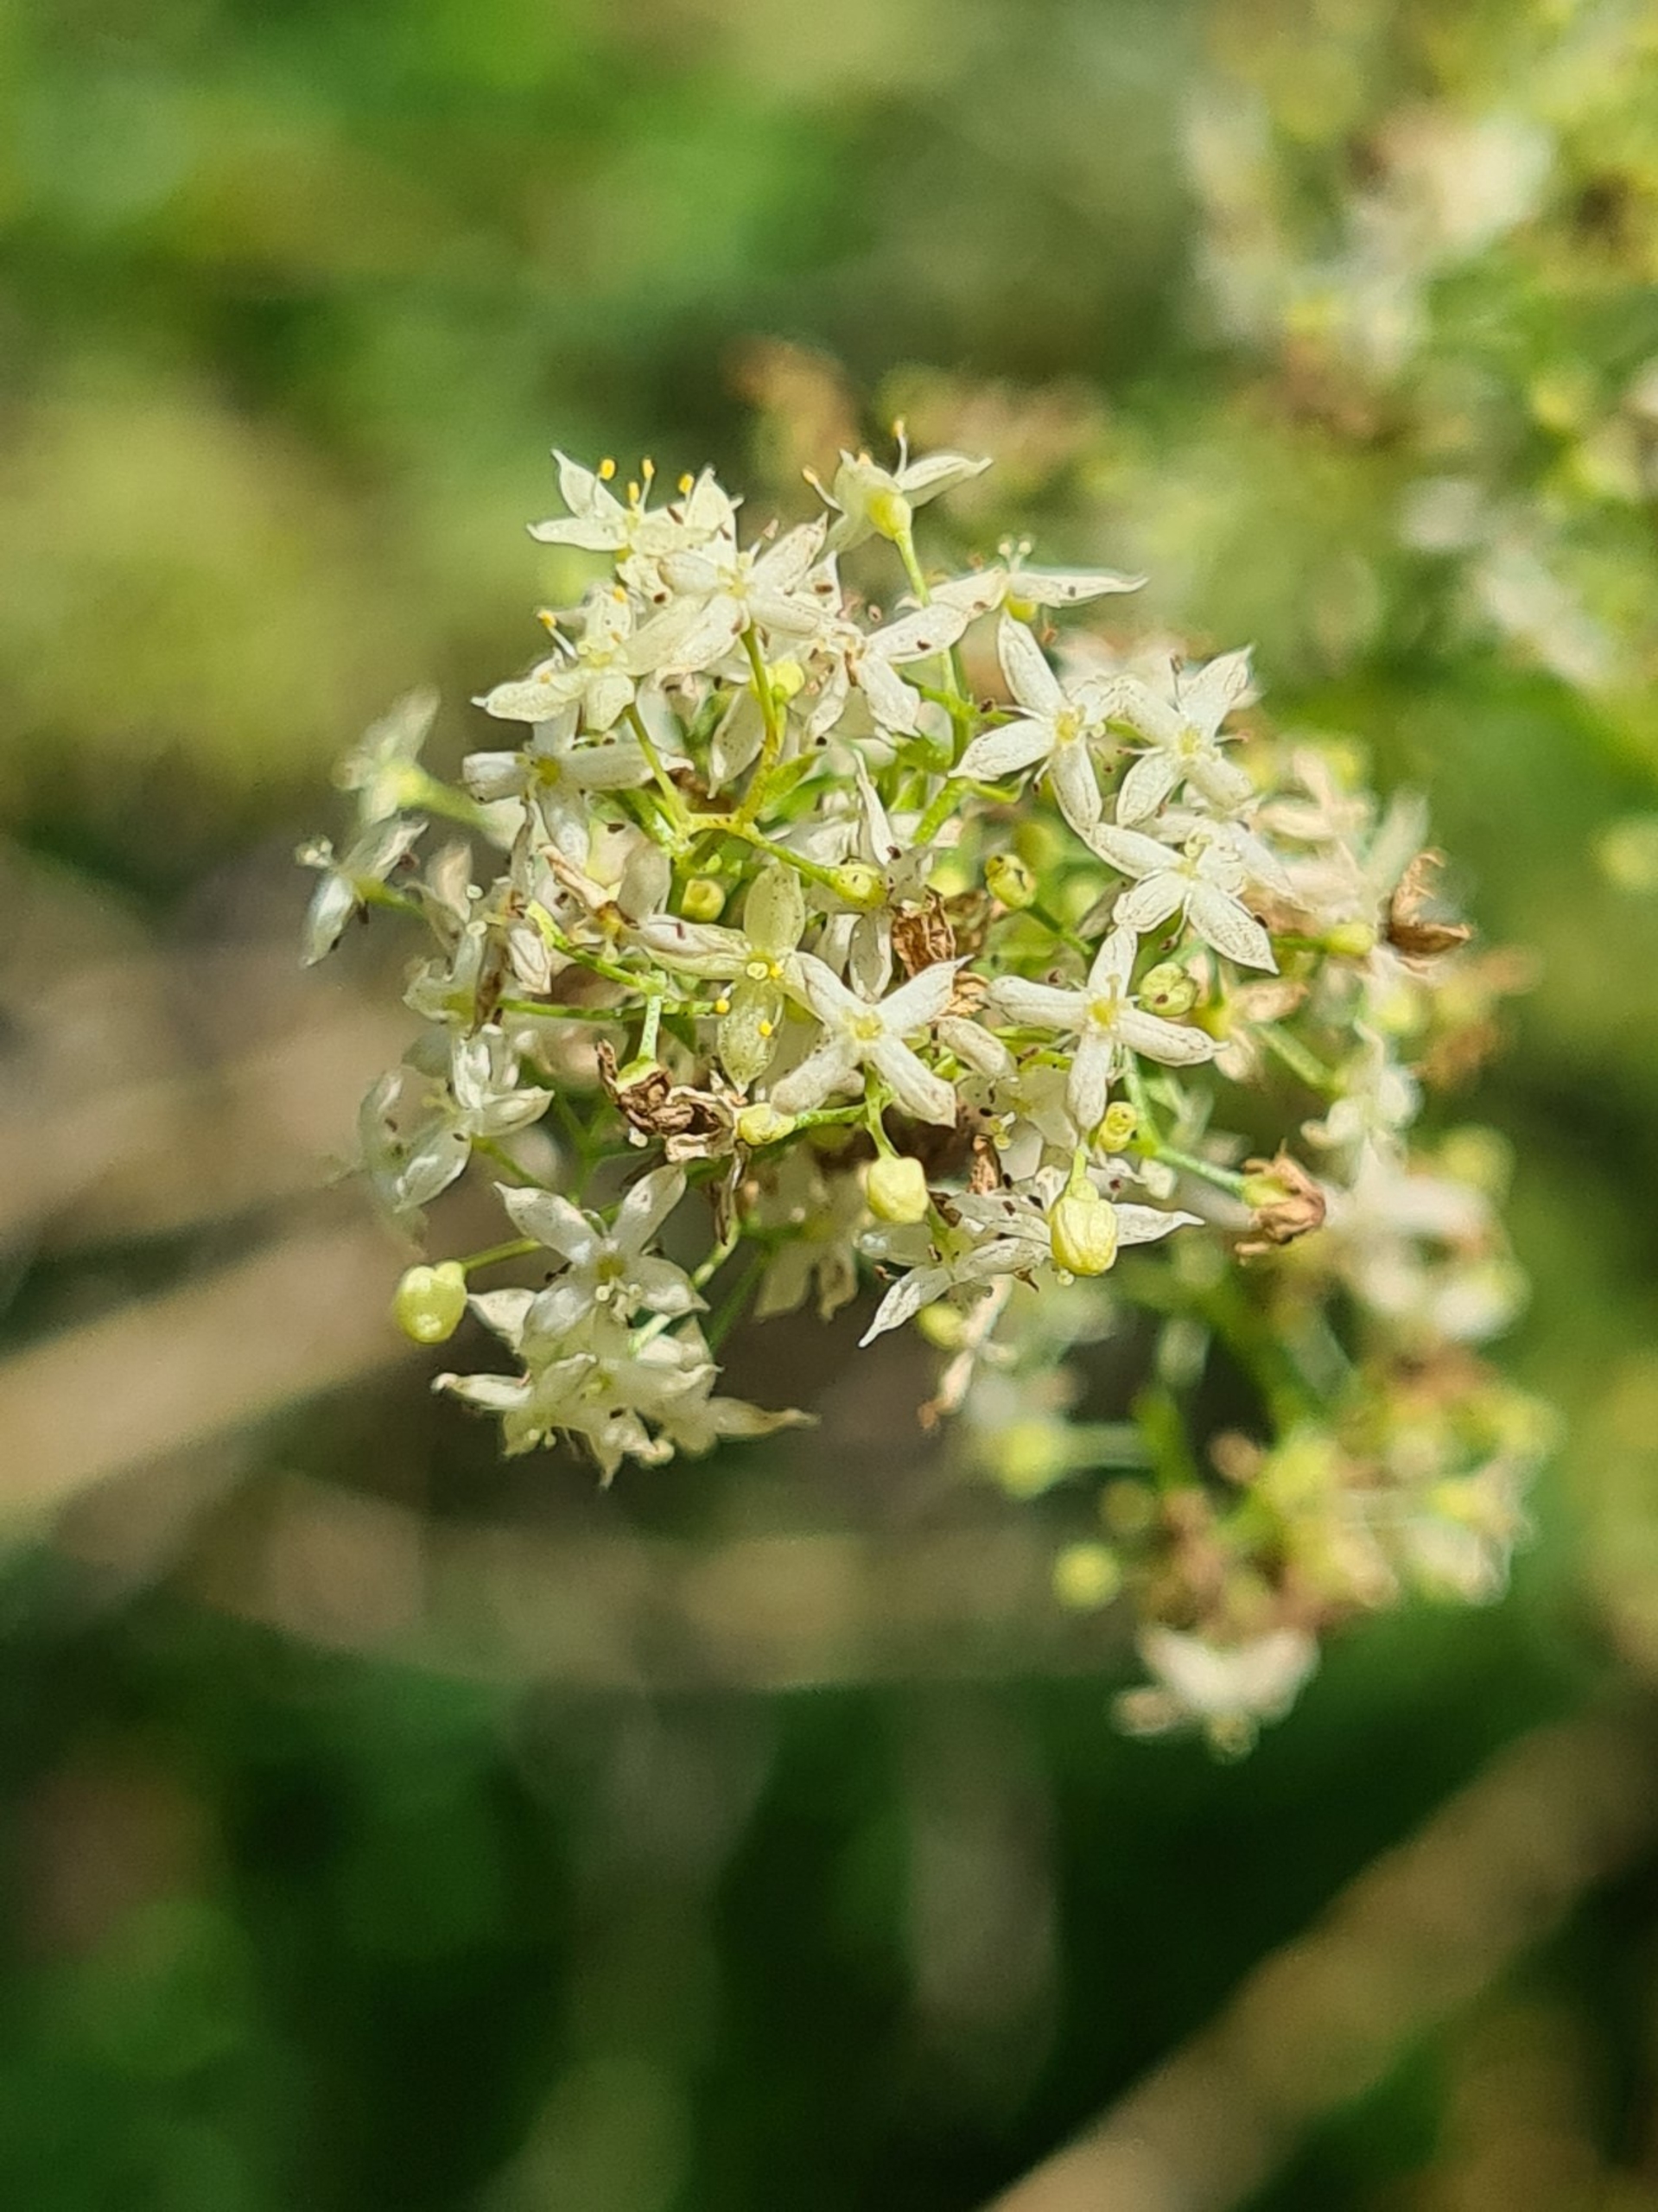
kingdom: Plantae
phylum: Tracheophyta
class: Magnoliopsida
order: Gentianales
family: Rubiaceae
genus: Galium
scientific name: Galium mollugo
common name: Hvid snerre
